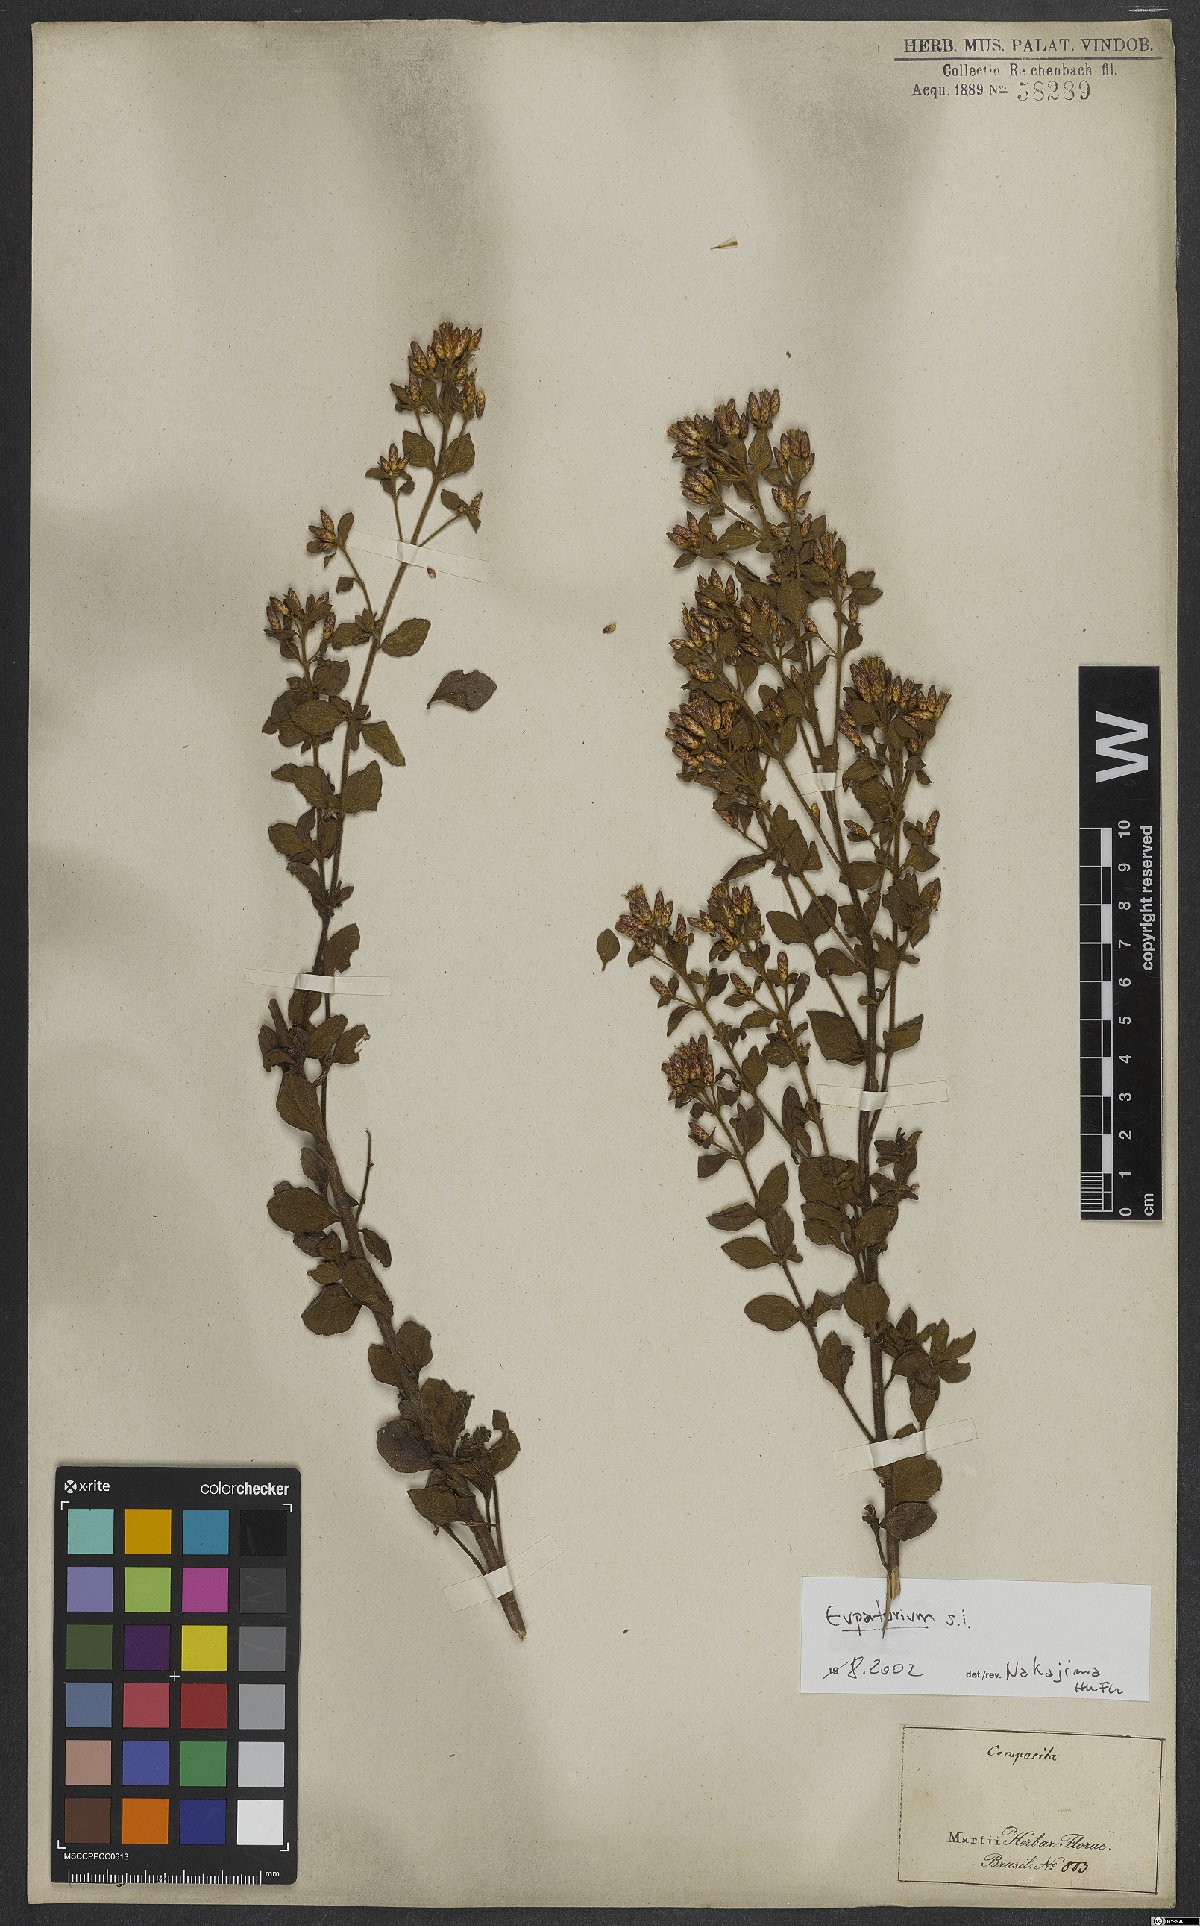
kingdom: Plantae
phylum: Tracheophyta
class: Magnoliopsida
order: Asterales
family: Asteraceae
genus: Eupatorium
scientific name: Eupatorium
